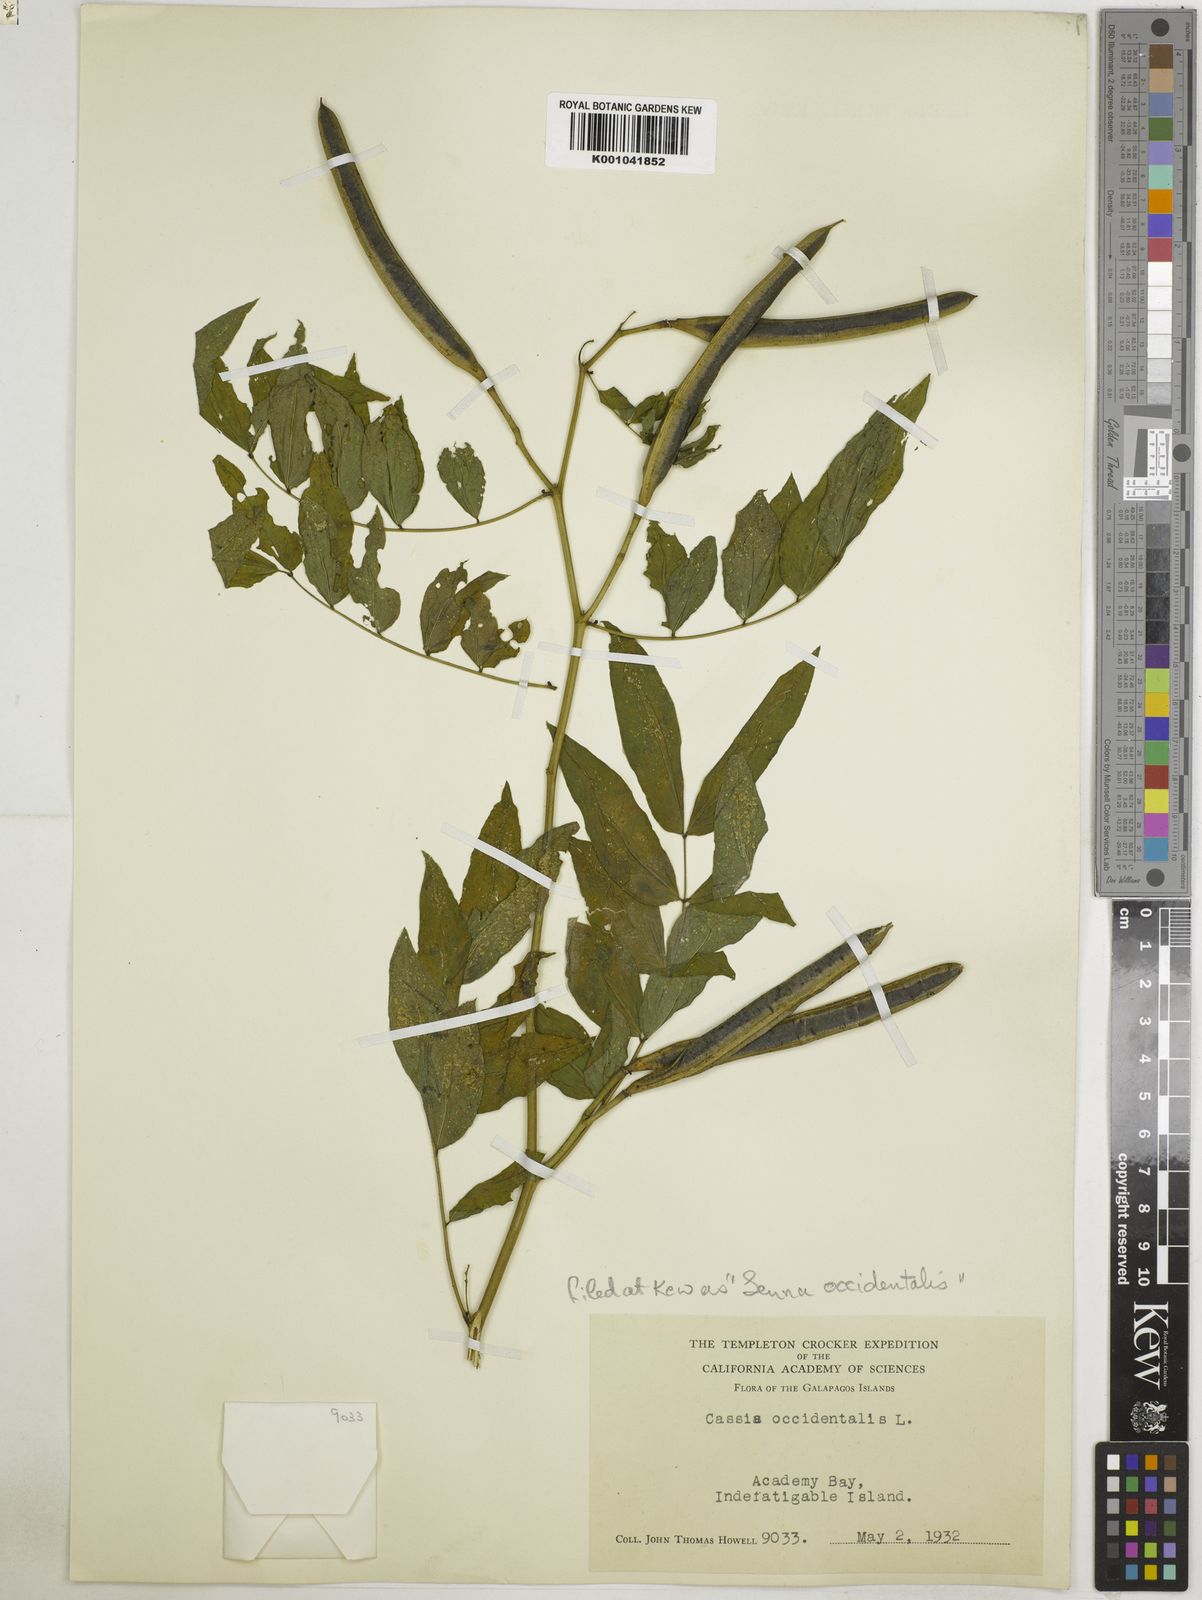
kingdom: Plantae
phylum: Tracheophyta
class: Magnoliopsida
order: Fabales
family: Fabaceae
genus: Senna
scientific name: Senna occidentalis
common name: Septicweed
